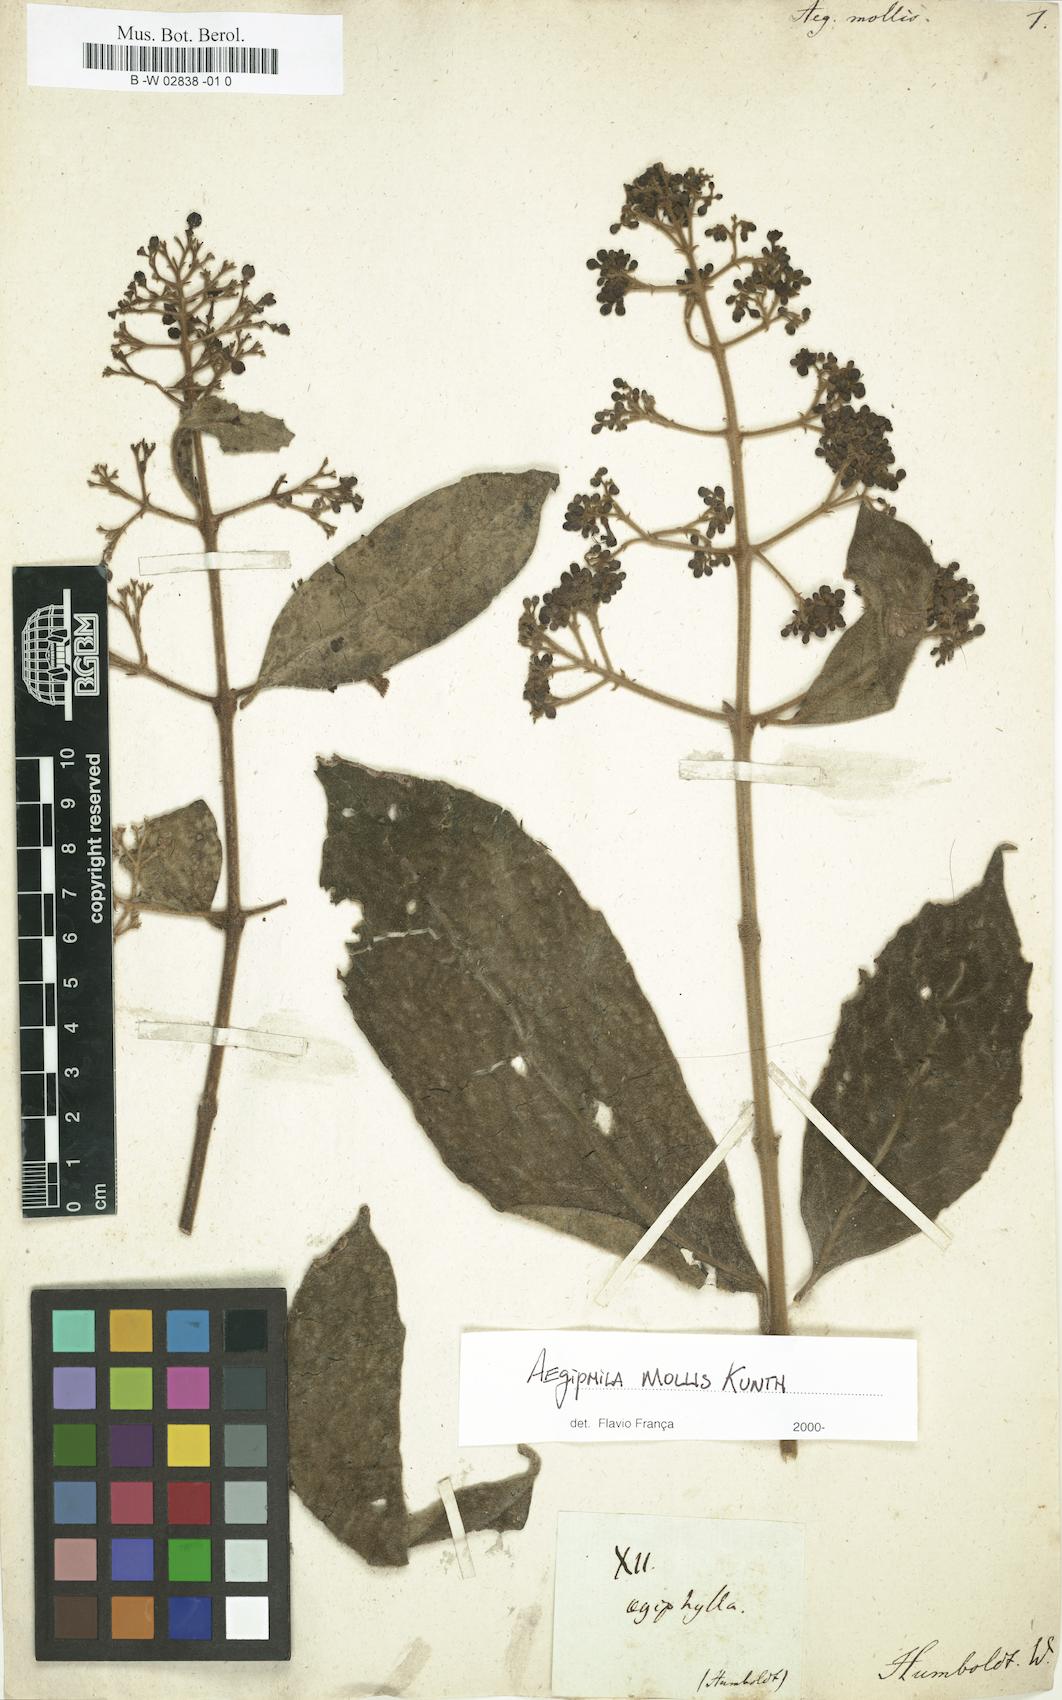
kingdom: Plantae
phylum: Tracheophyta
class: Magnoliopsida
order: Lamiales
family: Lamiaceae
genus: Aegiphila
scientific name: Aegiphila mollis
